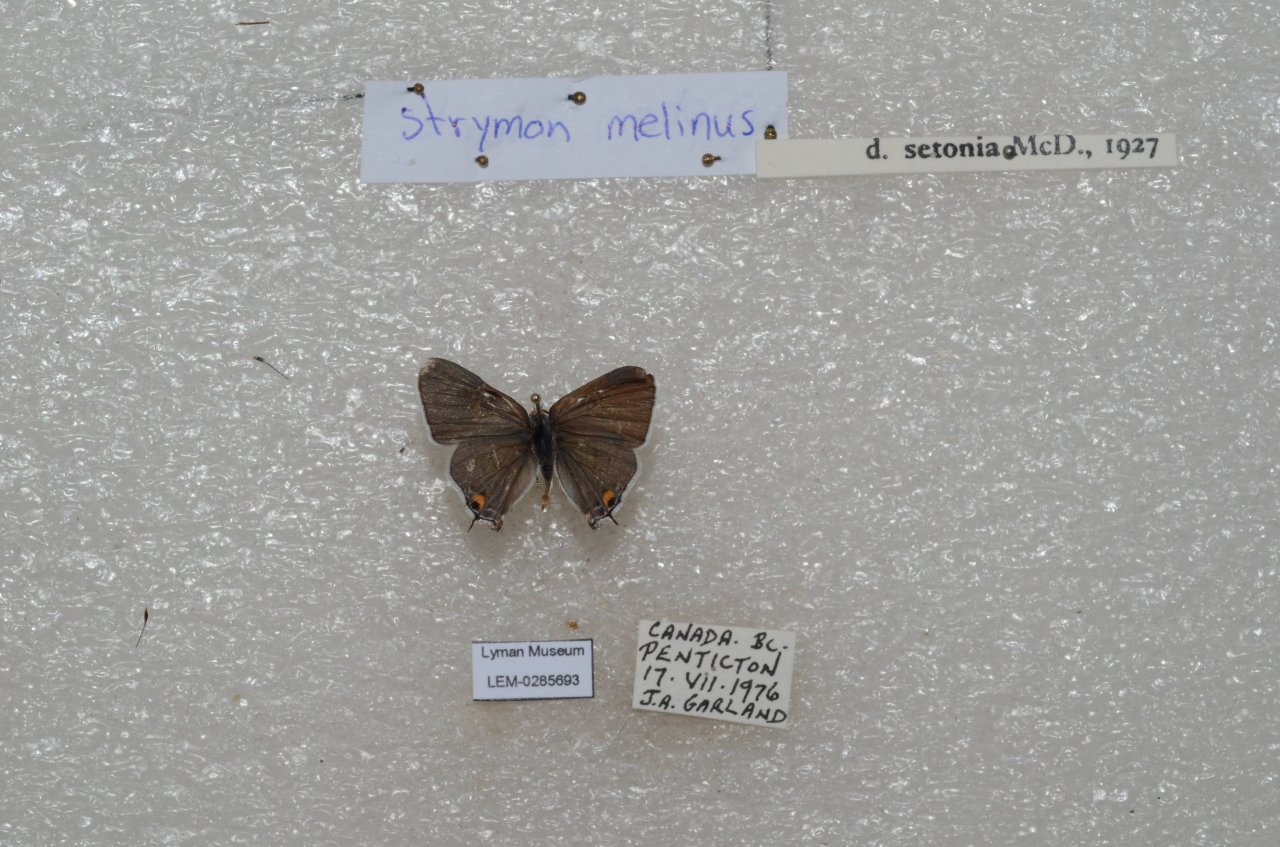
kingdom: Animalia
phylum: Arthropoda
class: Insecta
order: Lepidoptera
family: Lycaenidae
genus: Strymon
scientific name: Strymon melinus
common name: Gray Hairstreak
